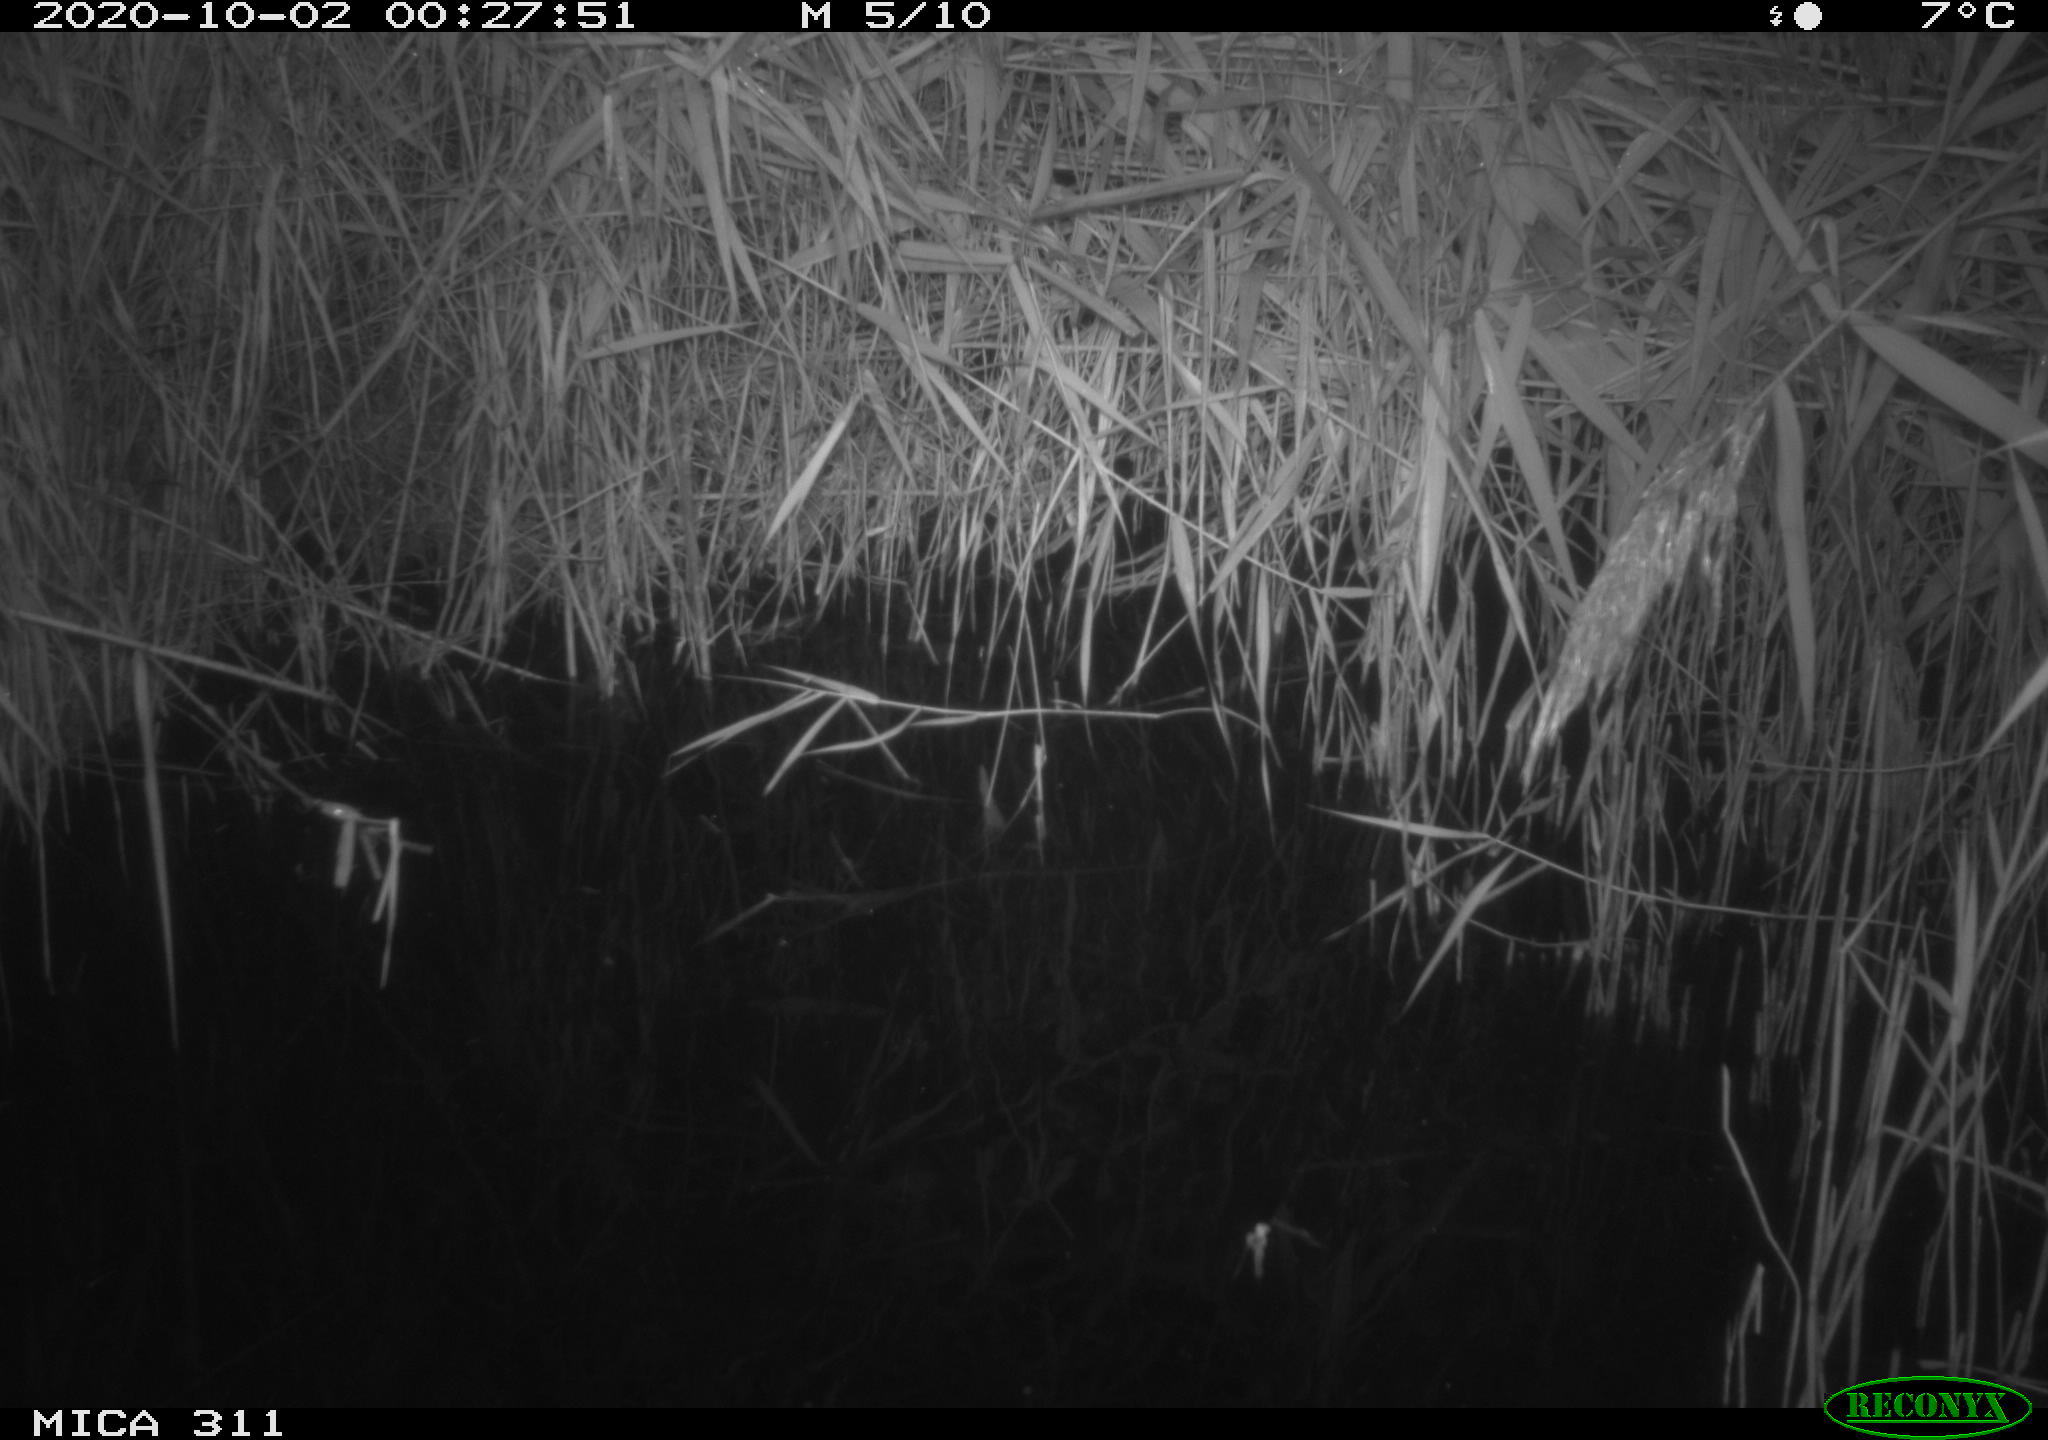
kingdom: Animalia
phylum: Chordata
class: Mammalia
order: Rodentia
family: Muridae
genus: Rattus
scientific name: Rattus norvegicus
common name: Brown rat
